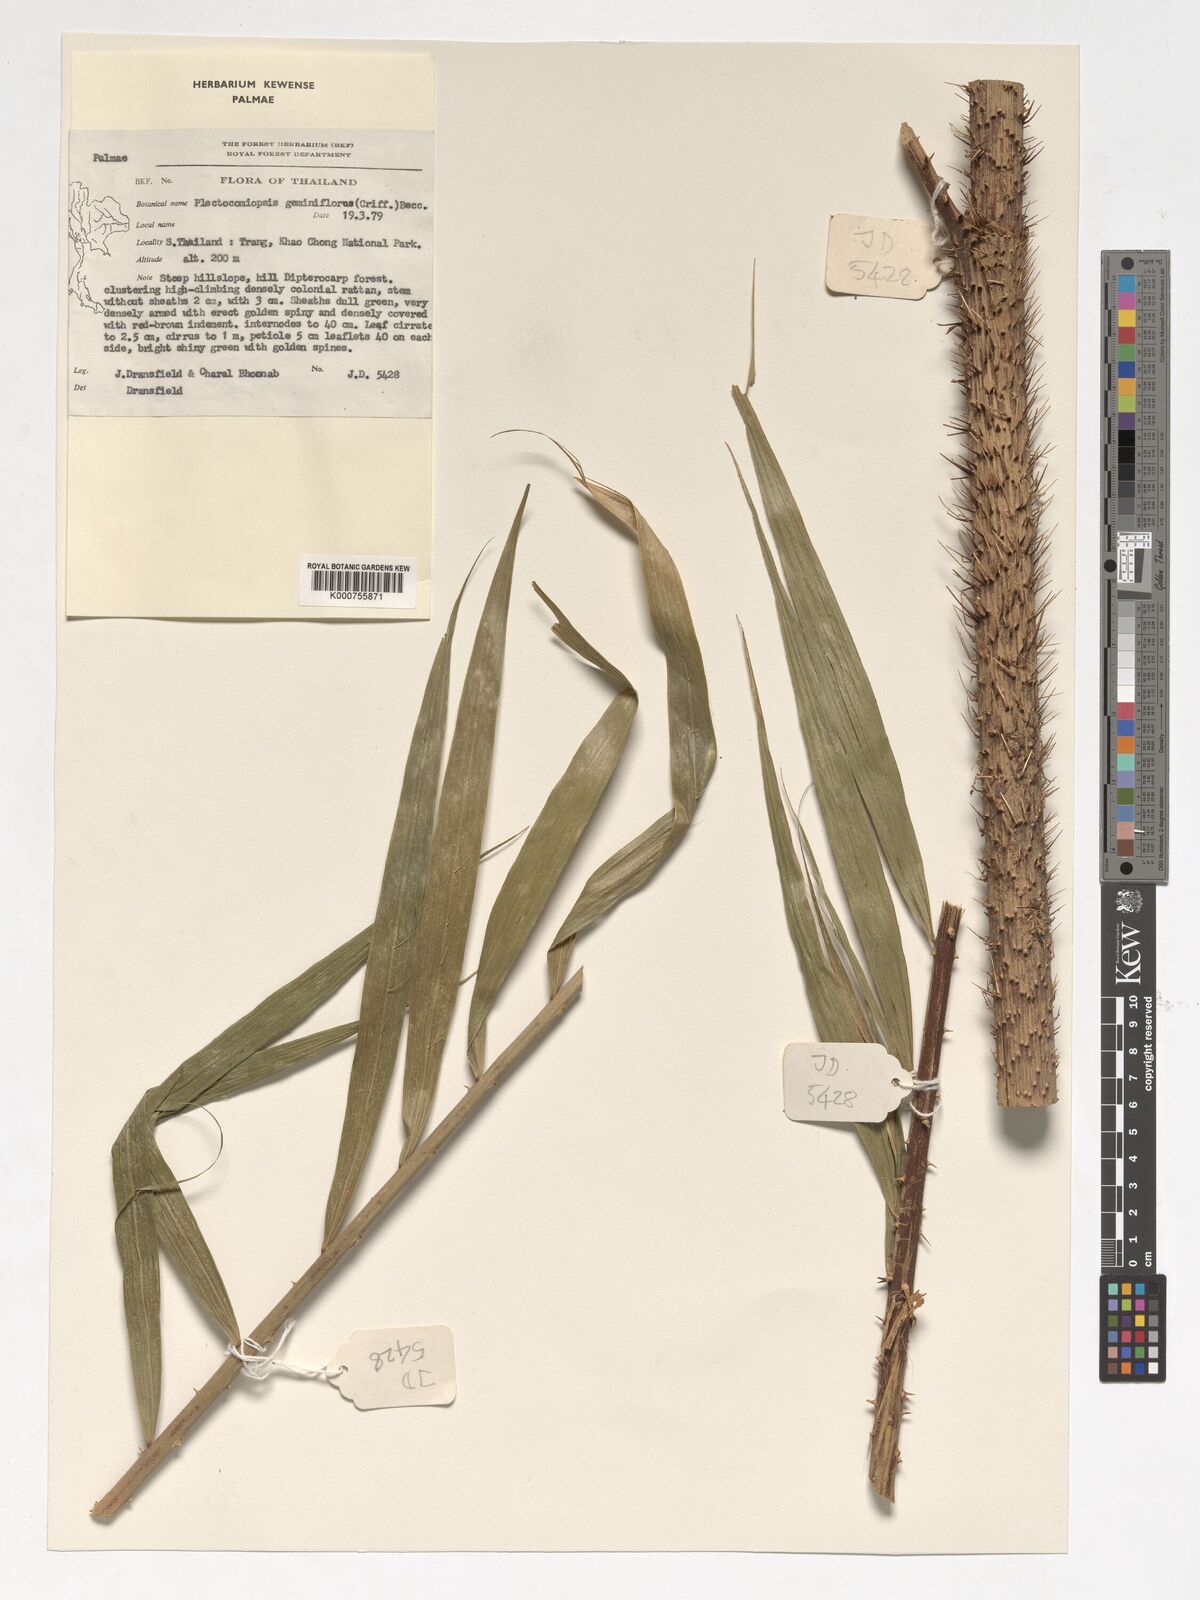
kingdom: Plantae
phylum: Tracheophyta
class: Liliopsida
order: Arecales
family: Arecaceae
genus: Plectocomiopsis
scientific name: Plectocomiopsis geminiflora
